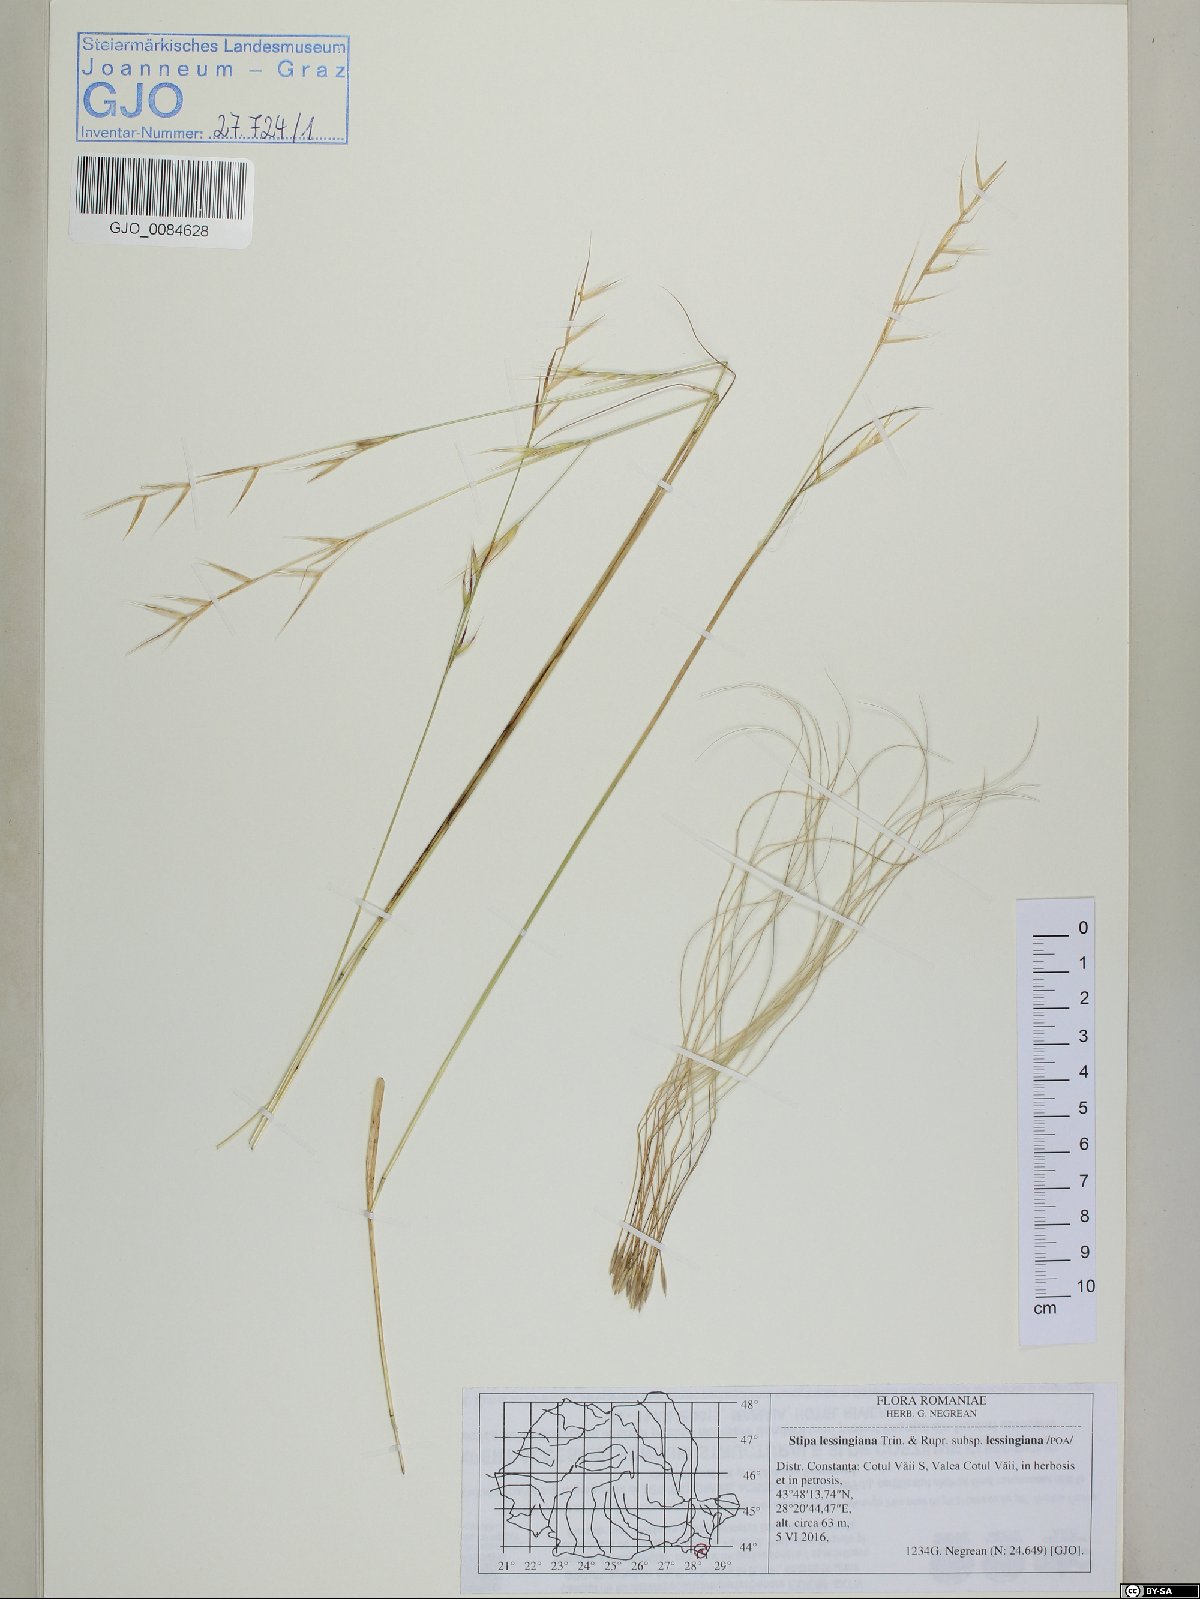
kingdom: Plantae
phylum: Tracheophyta
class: Liliopsida
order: Poales
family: Poaceae
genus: Stipa
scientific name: Stipa lessingiana
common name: Needle grass
